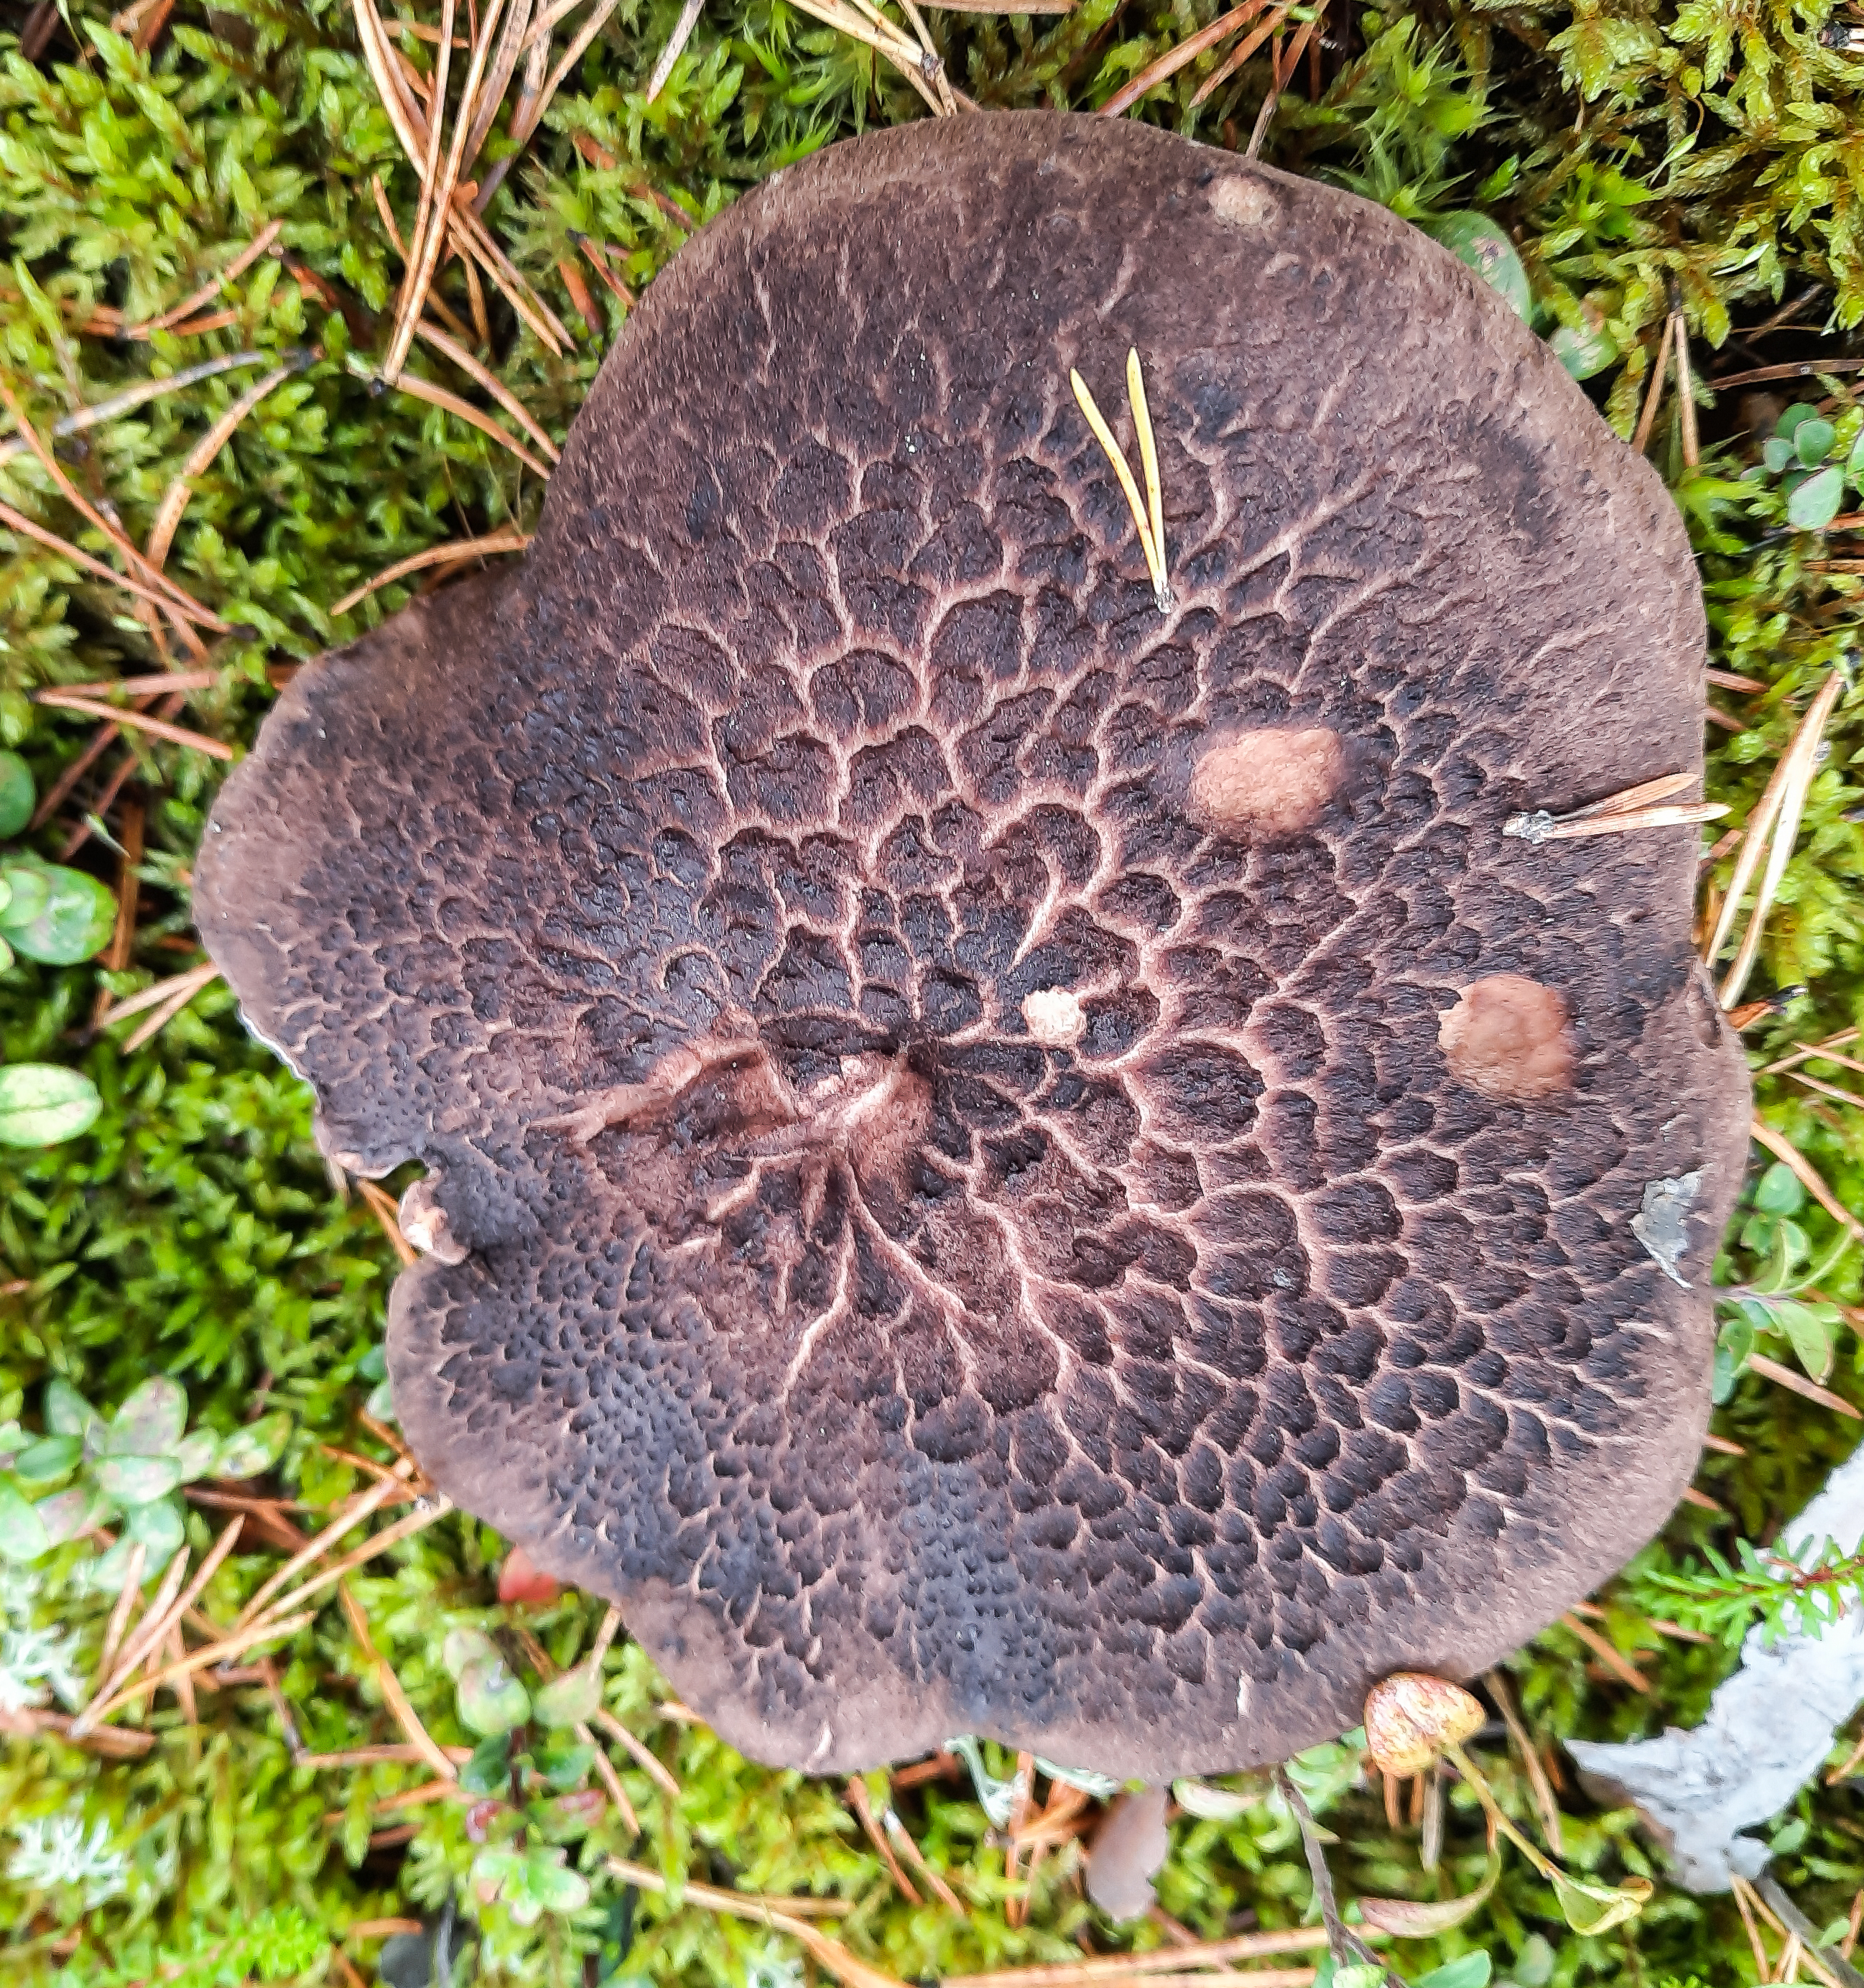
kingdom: Fungi
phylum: Basidiomycota
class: Agaricomycetes
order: Thelephorales
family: Bankeraceae
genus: Sarcodon
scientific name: Sarcodon squamosus
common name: Scaly tooth
